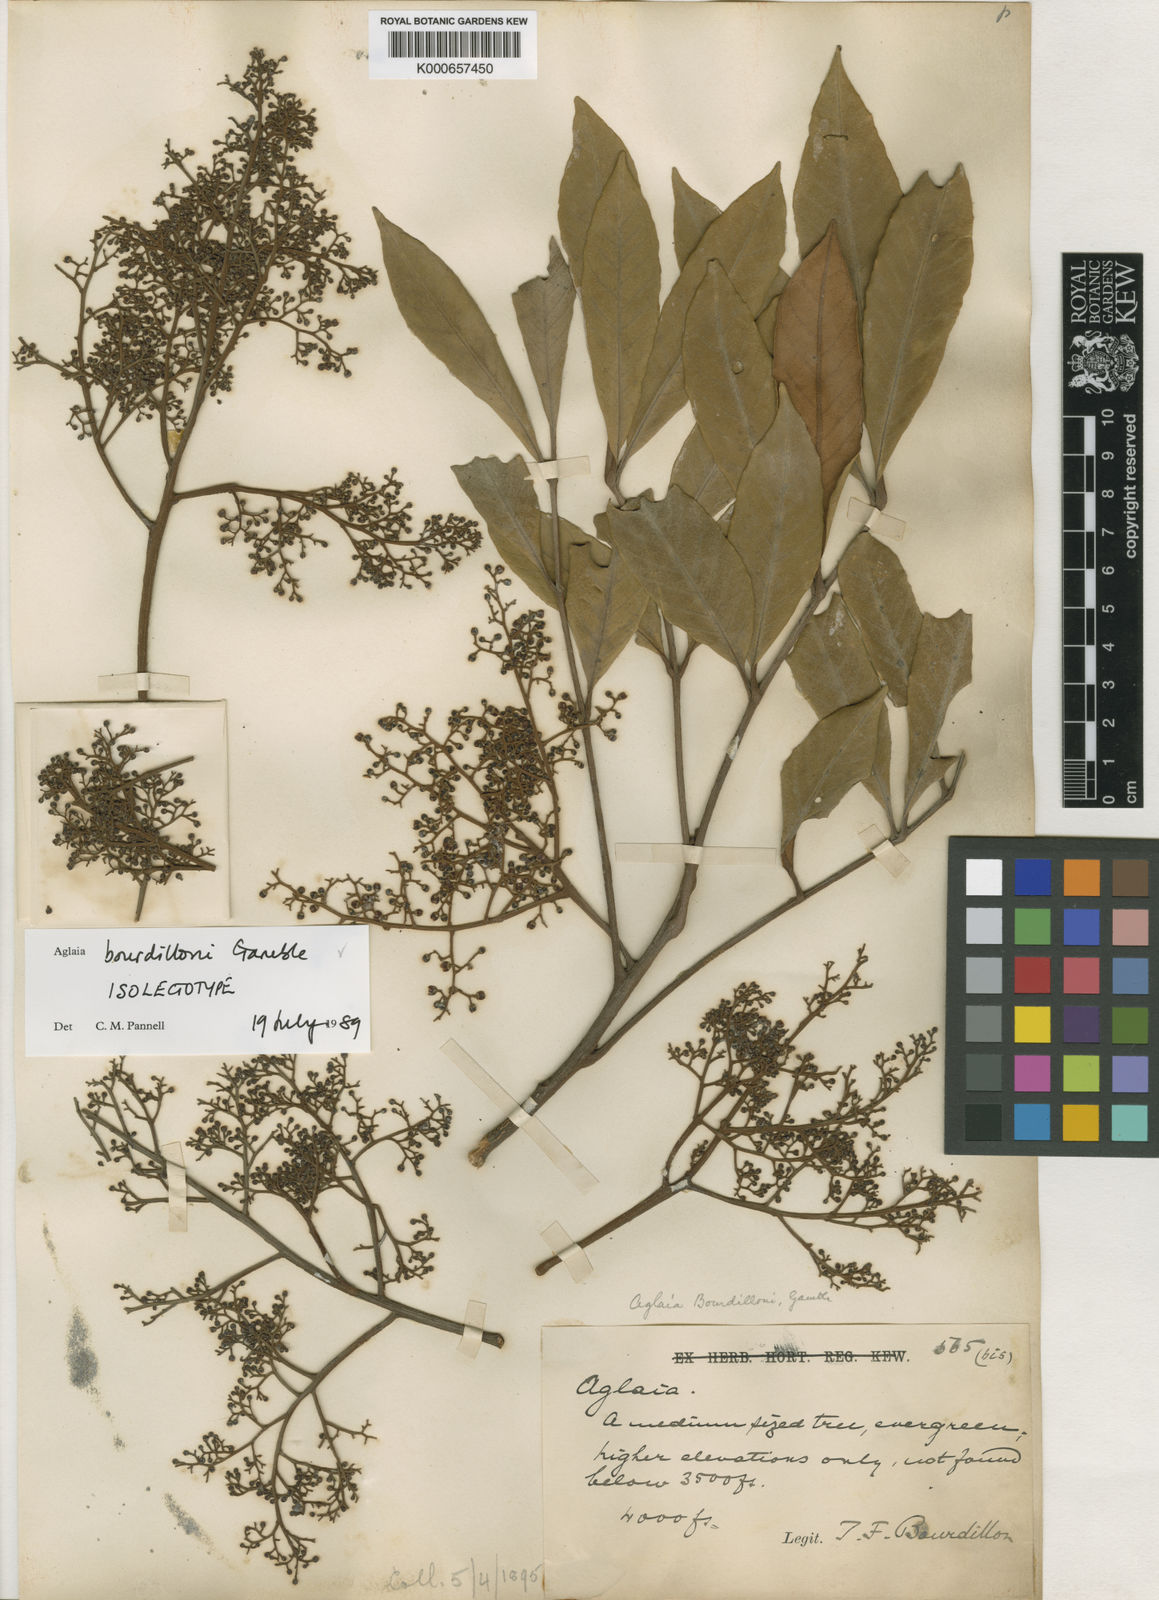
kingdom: Plantae
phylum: Tracheophyta
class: Magnoliopsida
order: Sapindales
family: Meliaceae
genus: Aglaia
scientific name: Aglaia elaeagnoidea
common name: Droopyleaf
